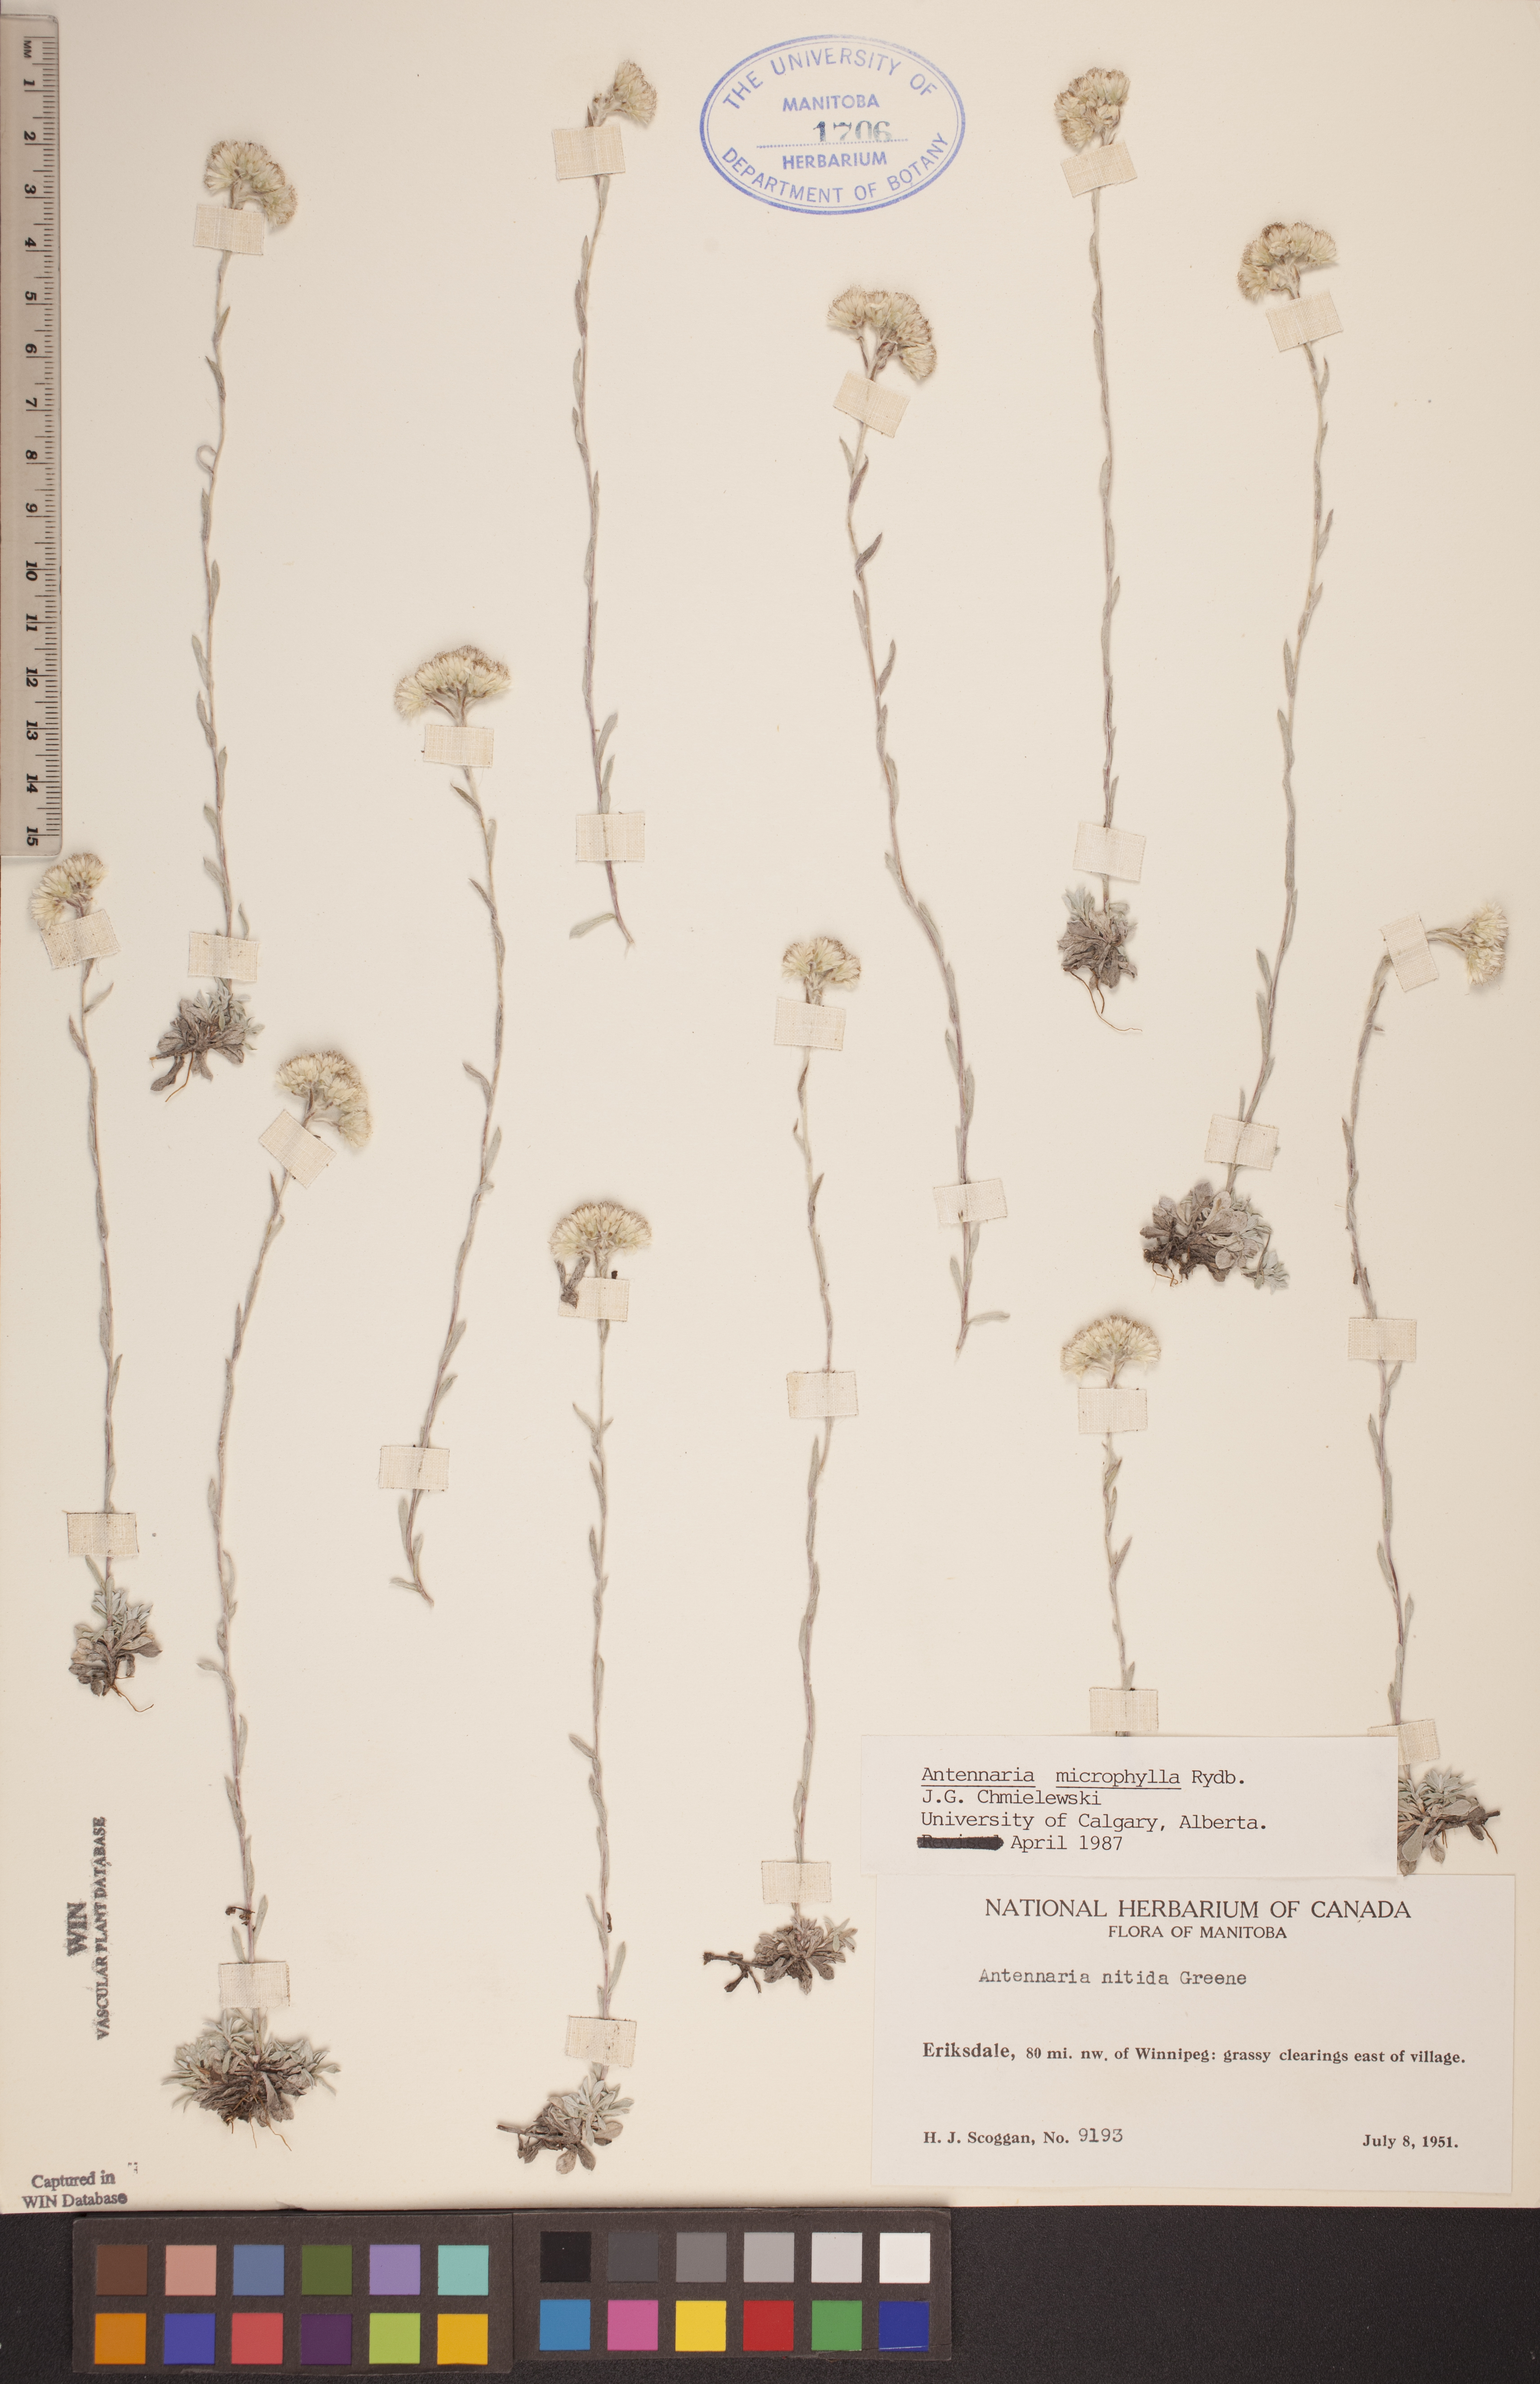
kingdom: Plantae
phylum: Tracheophyta
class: Magnoliopsida
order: Asterales
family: Asteraceae
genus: Antennaria
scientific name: Antennaria microphylla
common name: Littleleaf pussytoes
